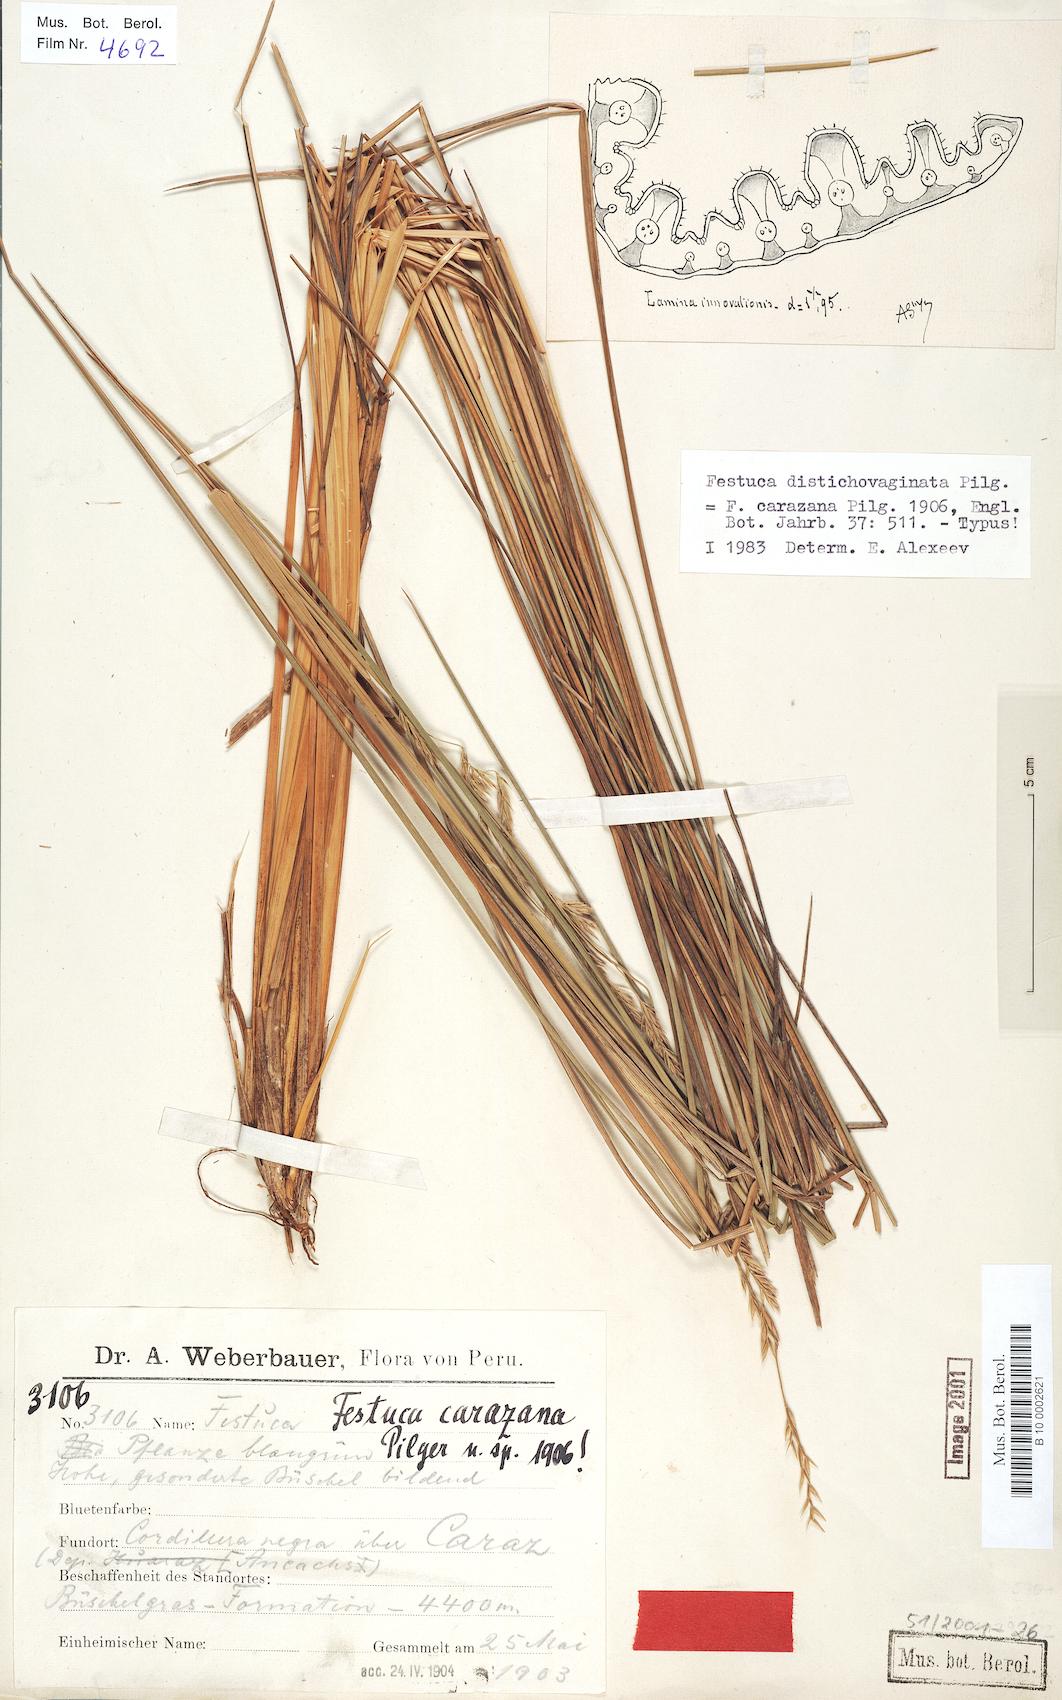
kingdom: Plantae
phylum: Tracheophyta
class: Liliopsida
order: Poales
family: Poaceae
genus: Festuca
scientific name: Festuca carazana
